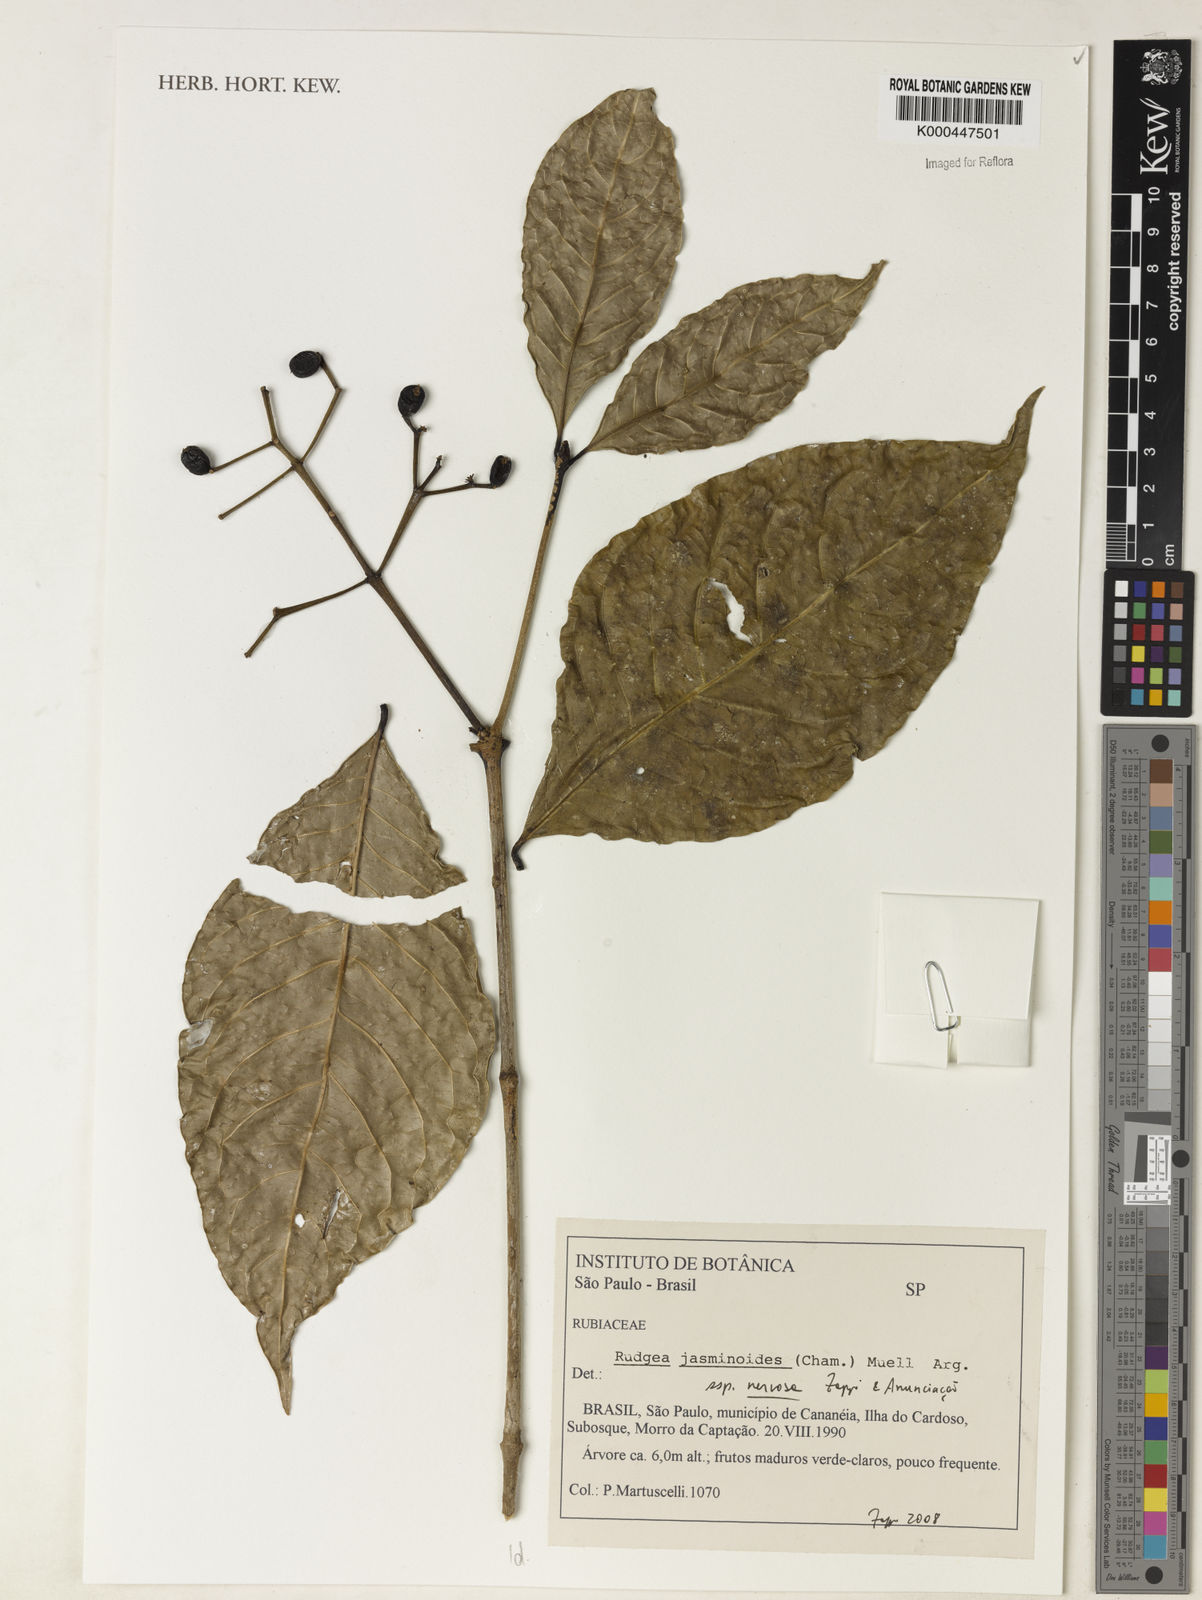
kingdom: Plantae
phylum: Tracheophyta
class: Magnoliopsida
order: Gentianales
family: Rubiaceae
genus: Rudgea
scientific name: Rudgea
